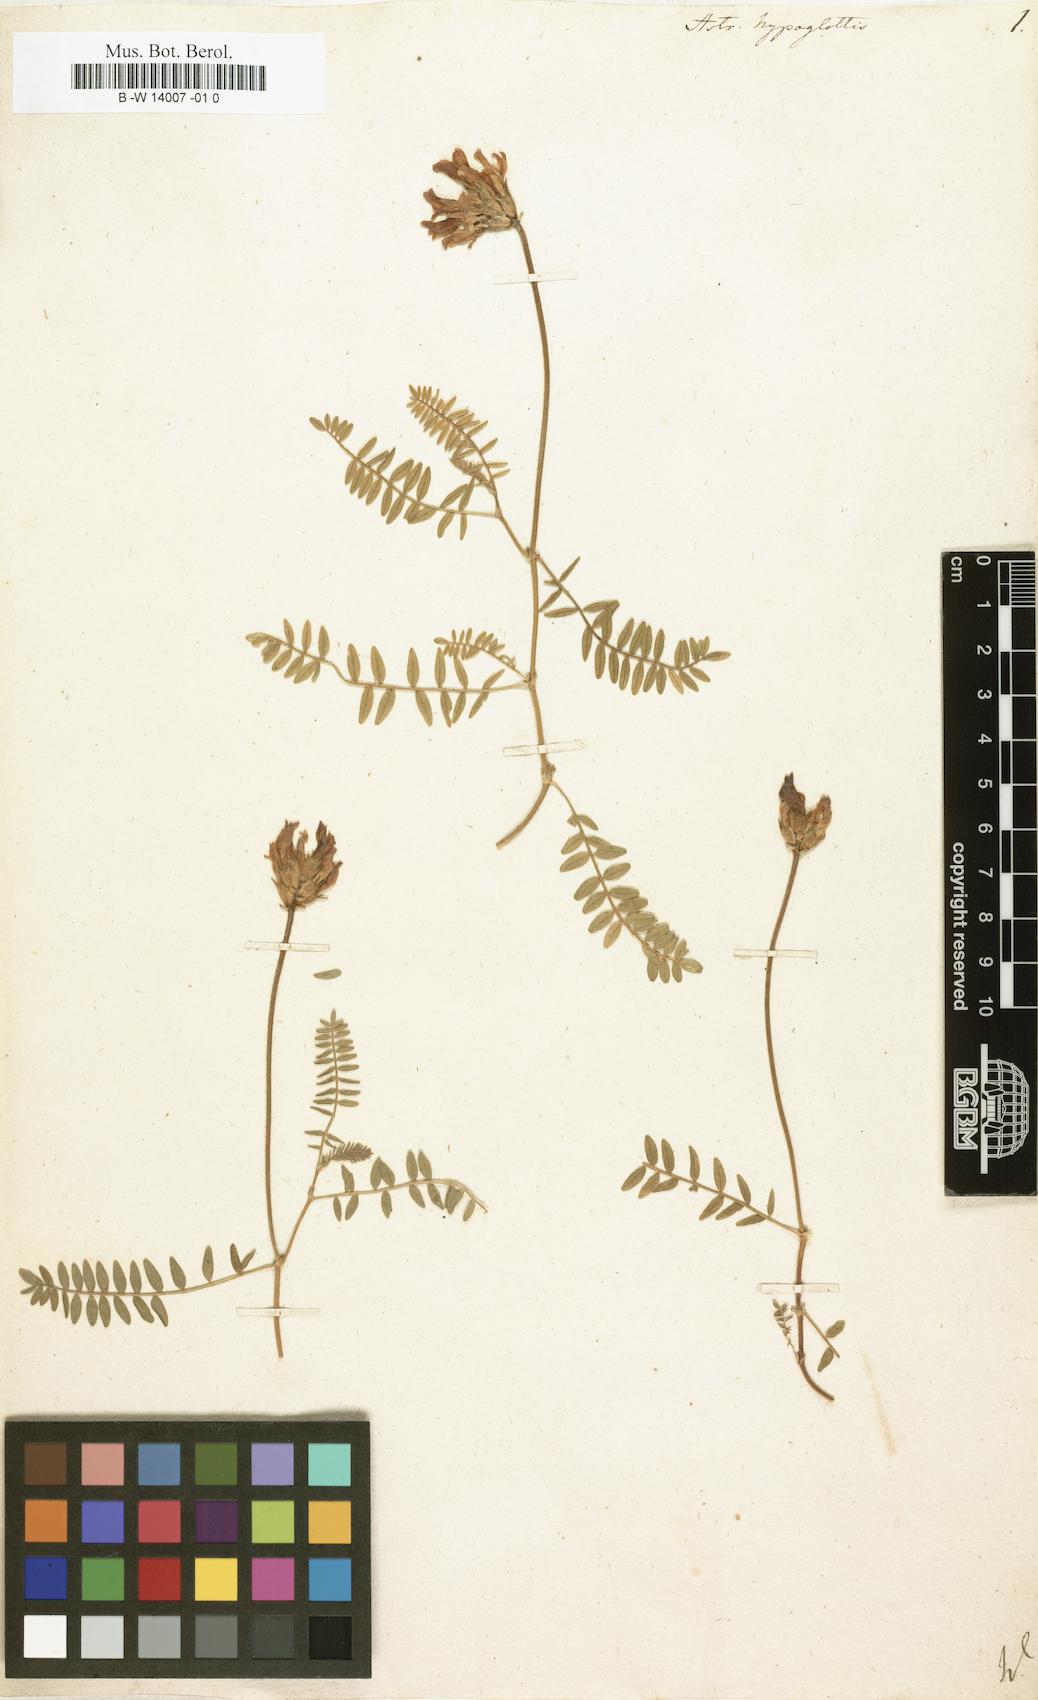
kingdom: Plantae
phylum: Tracheophyta
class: Magnoliopsida
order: Fabales
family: Fabaceae
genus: Astragalus
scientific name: Astragalus hypoglottis
